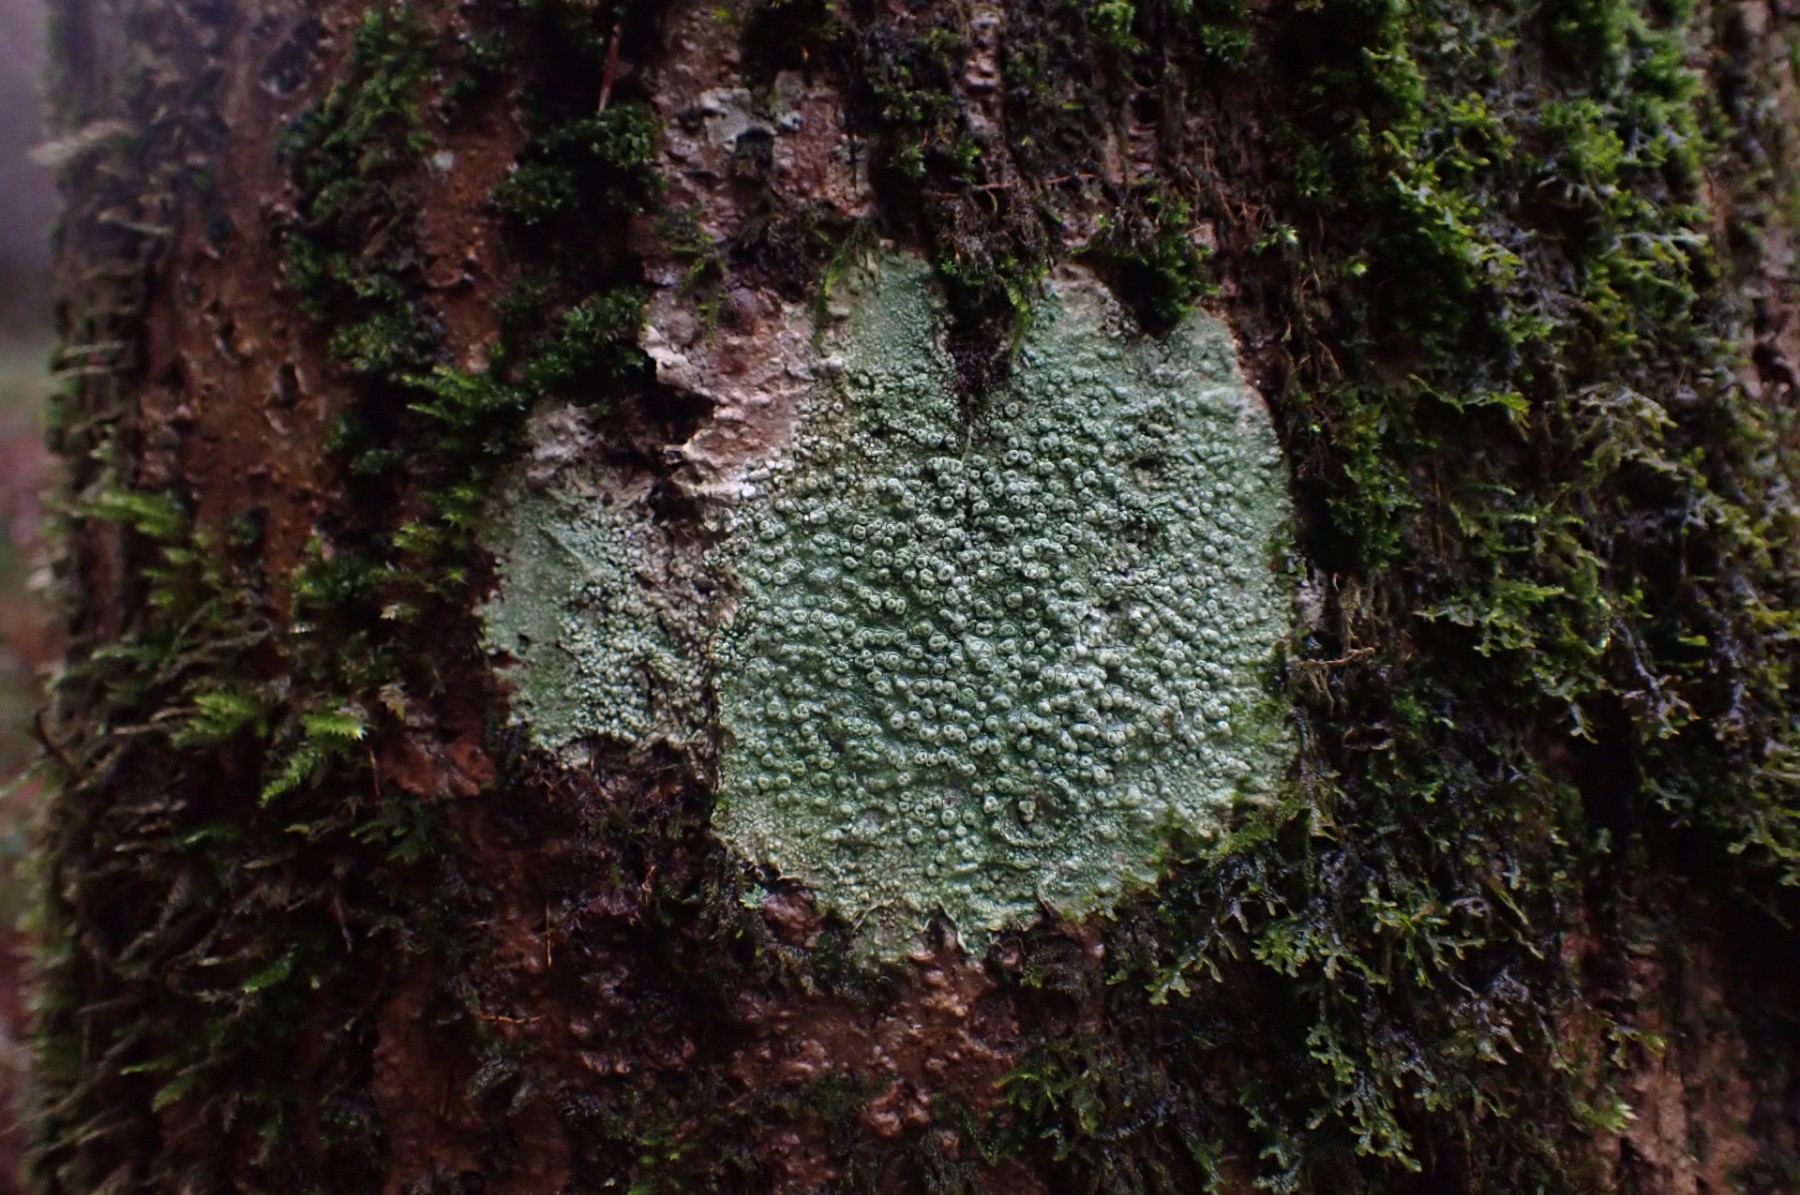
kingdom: Fungi
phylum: Ascomycota
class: Lecanoromycetes
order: Pertusariales
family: Pertusariaceae
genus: Pertusaria
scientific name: Pertusaria pertusa
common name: almindelig prikvortelav
